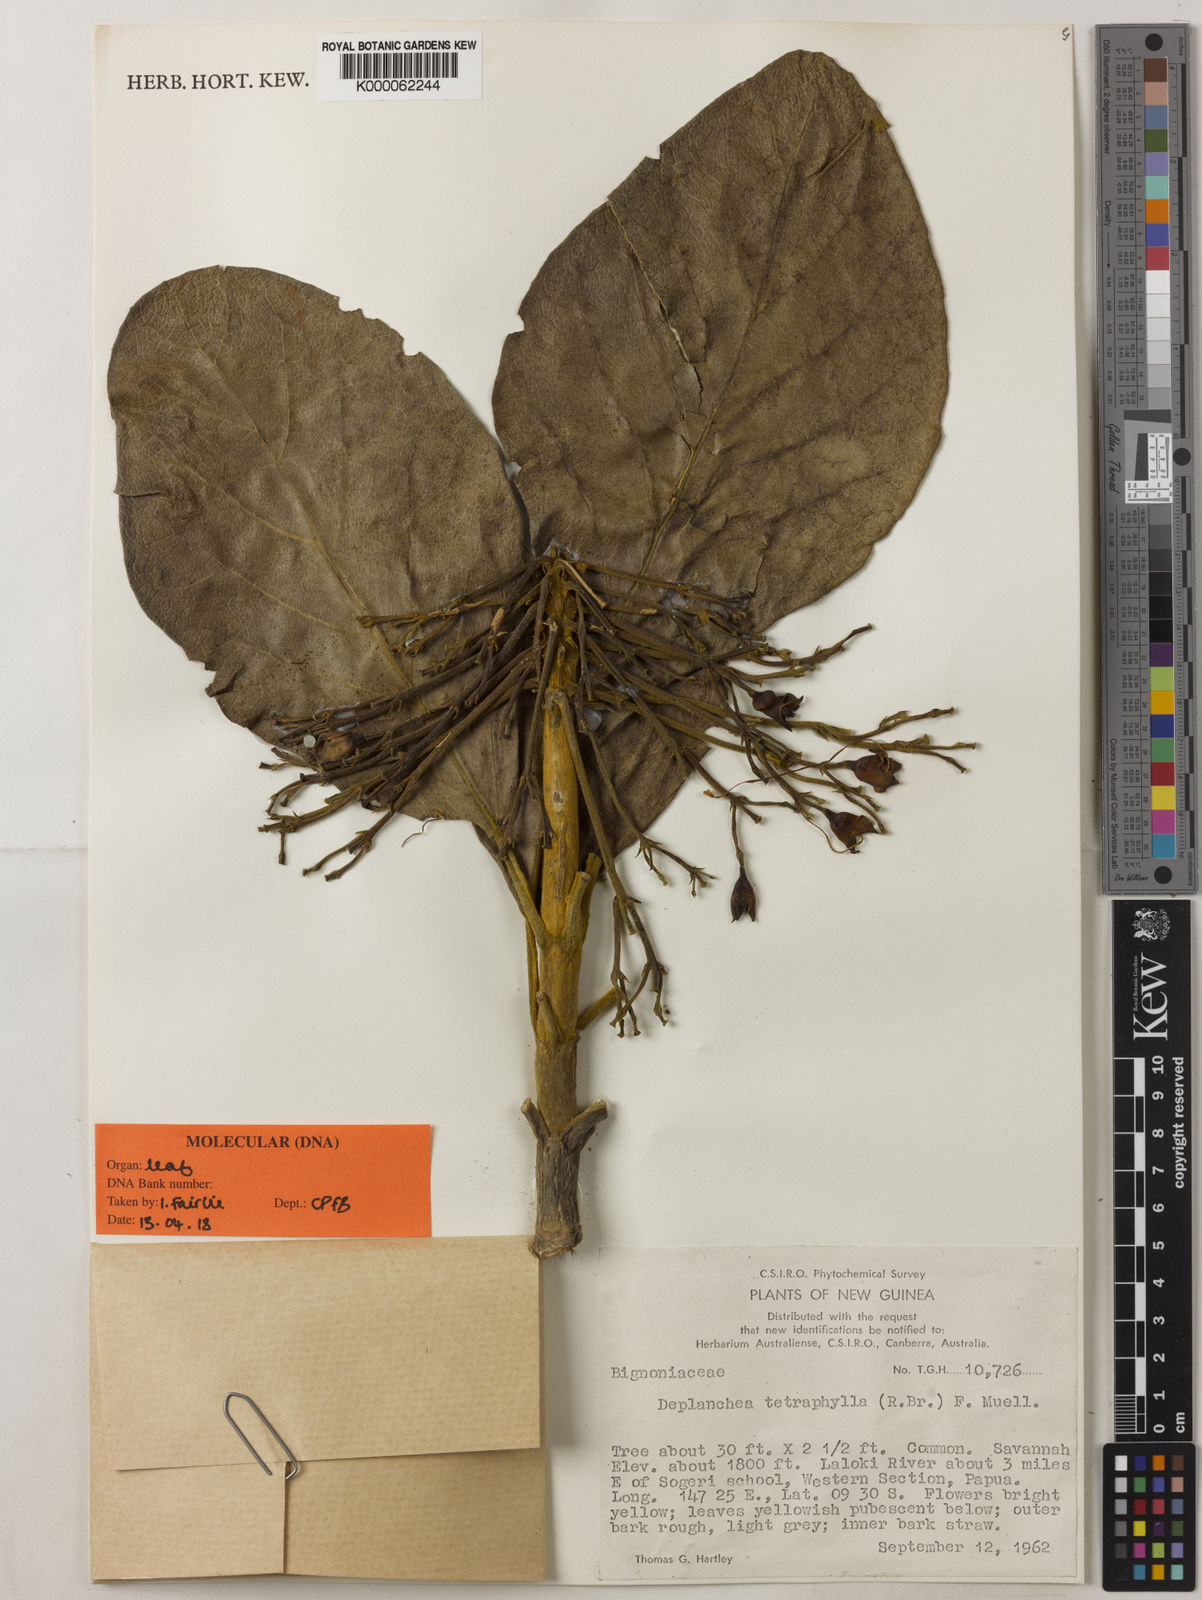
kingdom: Plantae
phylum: Tracheophyta
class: Magnoliopsida
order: Lamiales
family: Bignoniaceae
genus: Deplanchea
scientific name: Deplanchea
